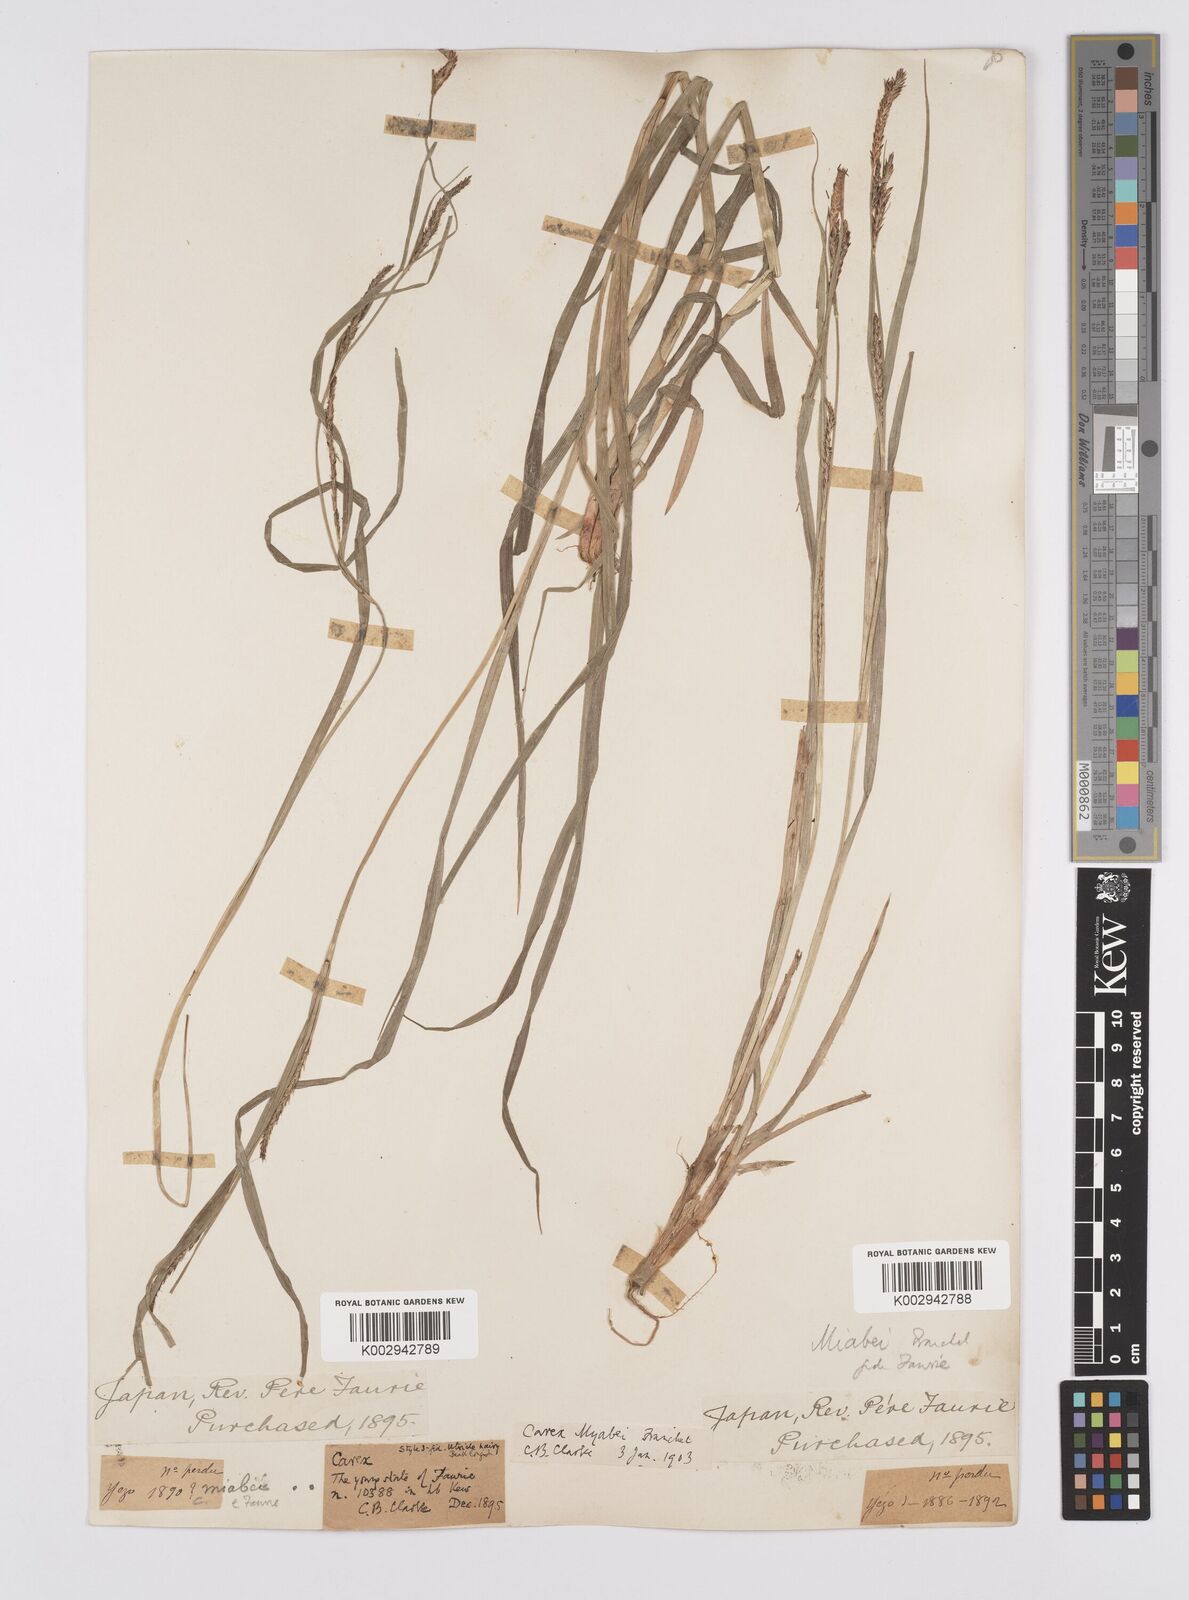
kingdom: Plantae
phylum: Tracheophyta
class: Liliopsida
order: Poales
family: Cyperaceae
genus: Carex
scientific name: Carex fedia
